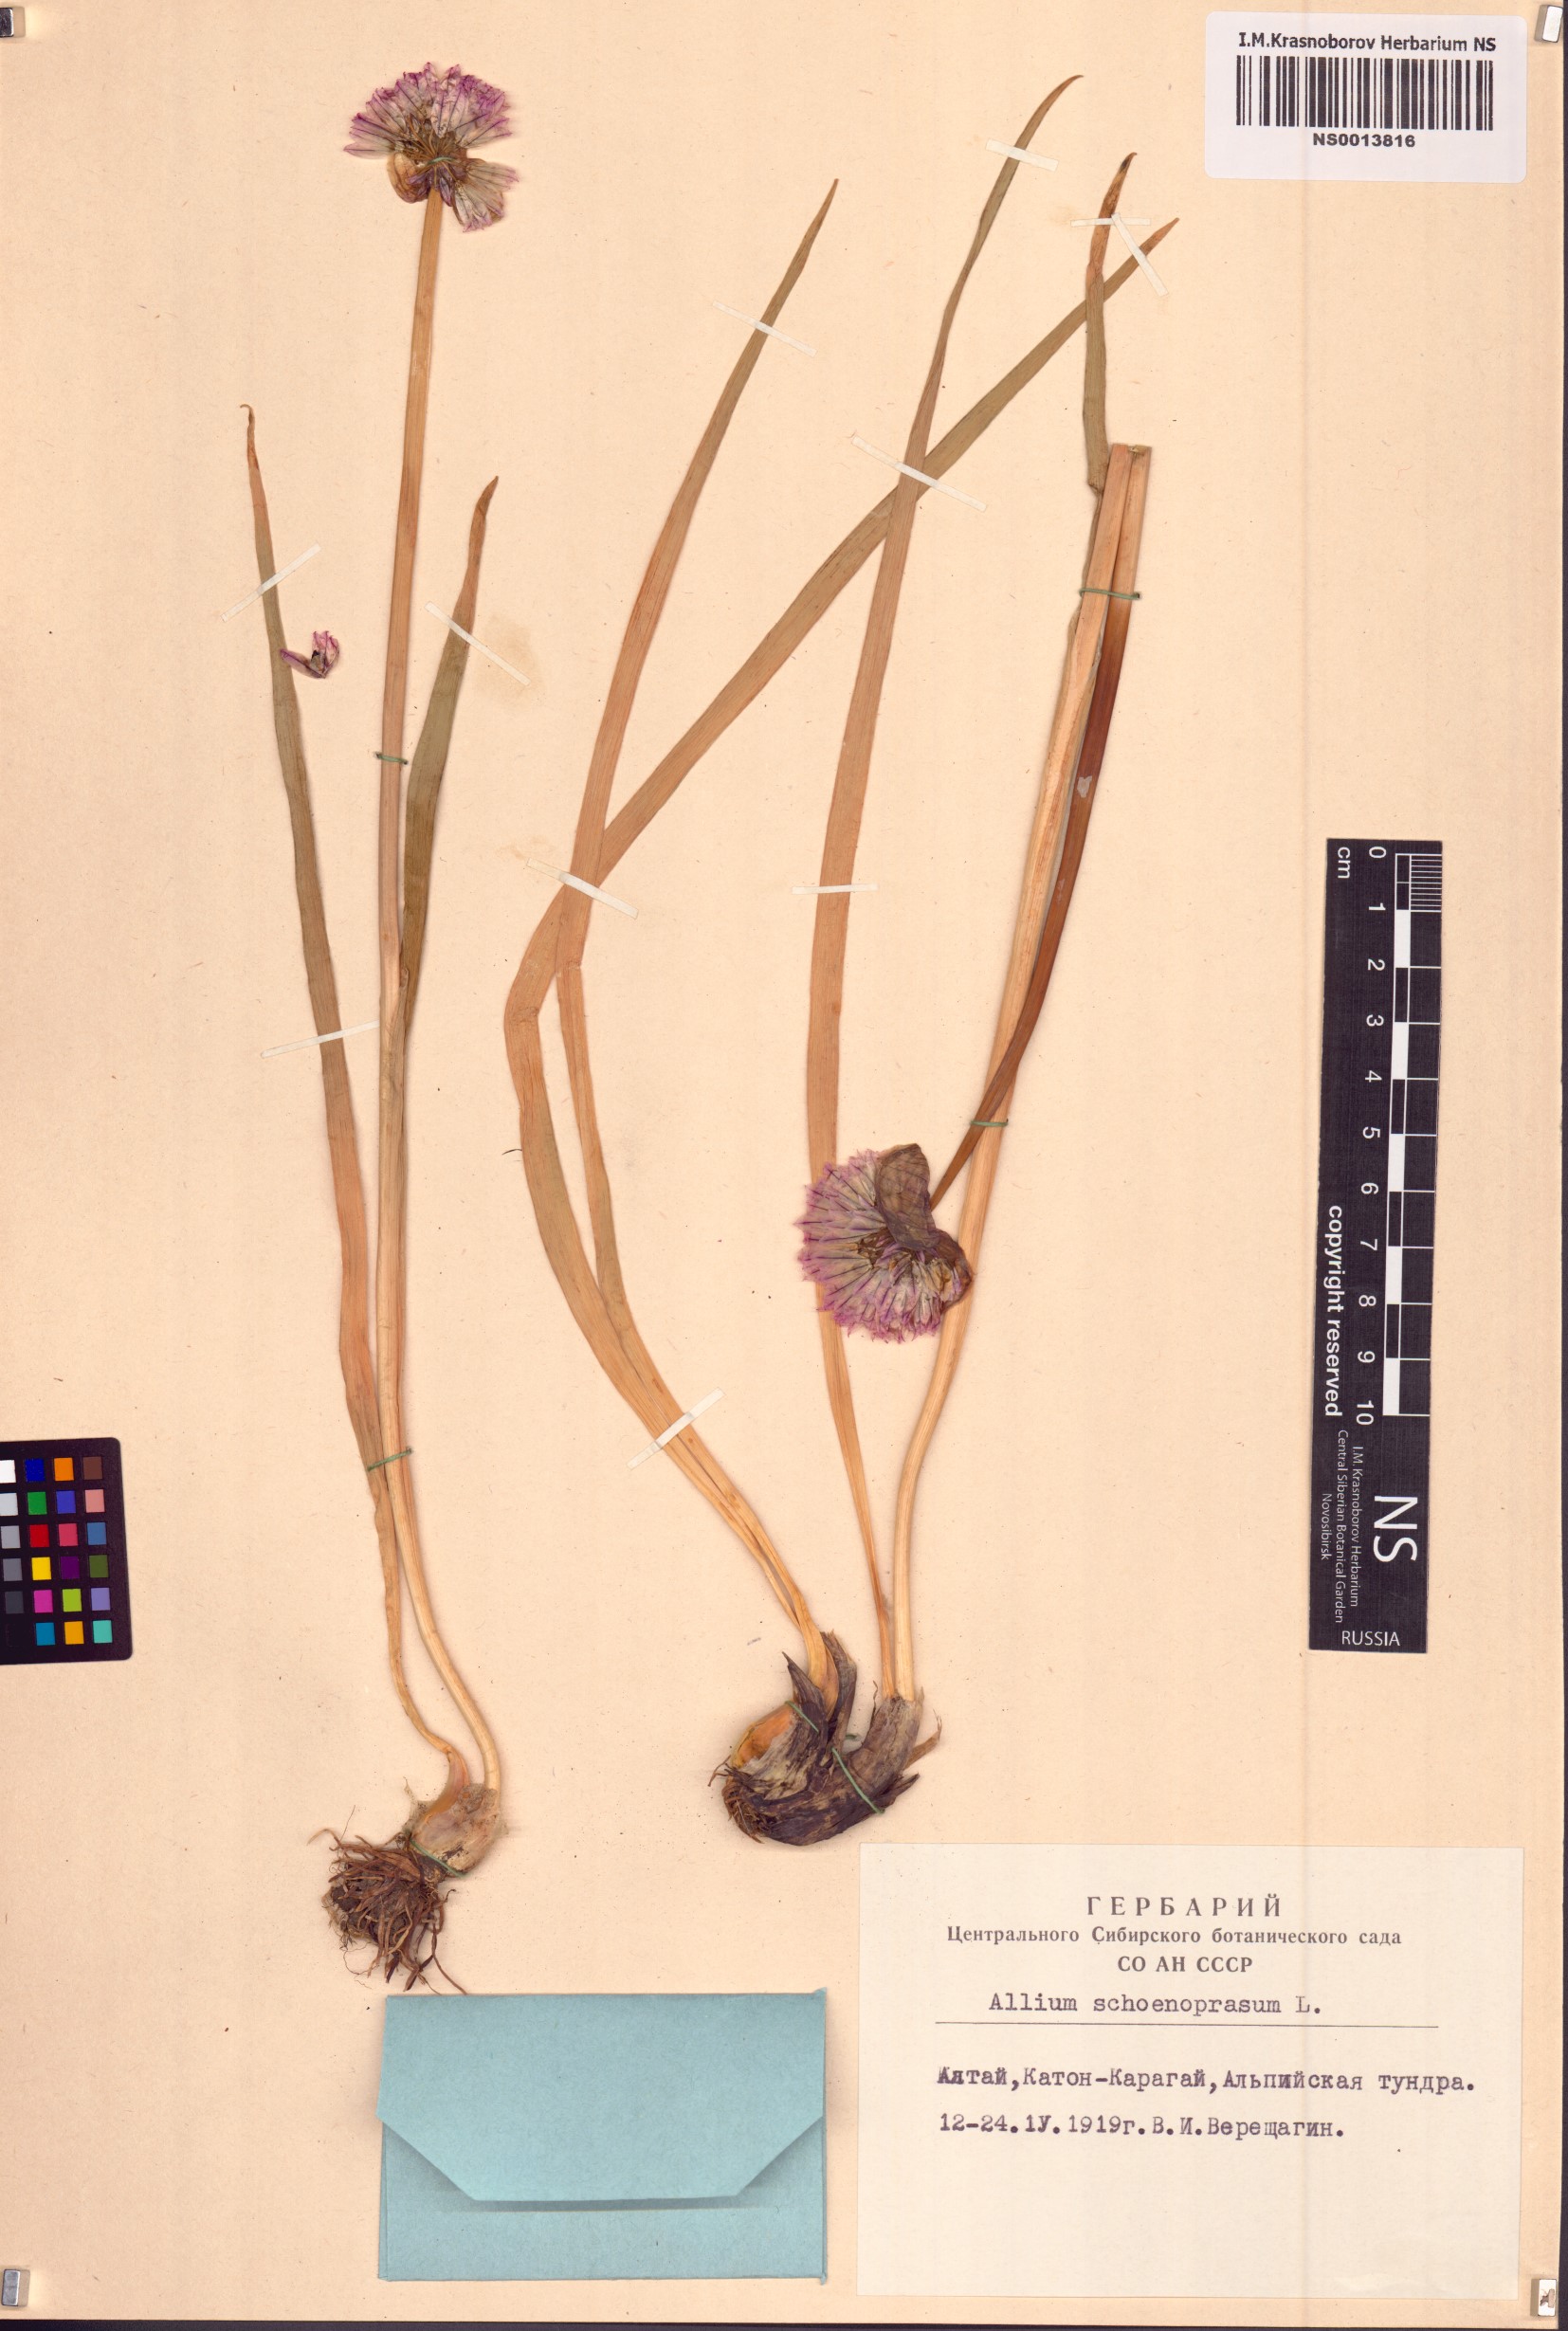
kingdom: Plantae
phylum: Tracheophyta
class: Liliopsida
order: Asparagales
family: Amaryllidaceae
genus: Allium
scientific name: Allium schoenoprasum
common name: Chives
